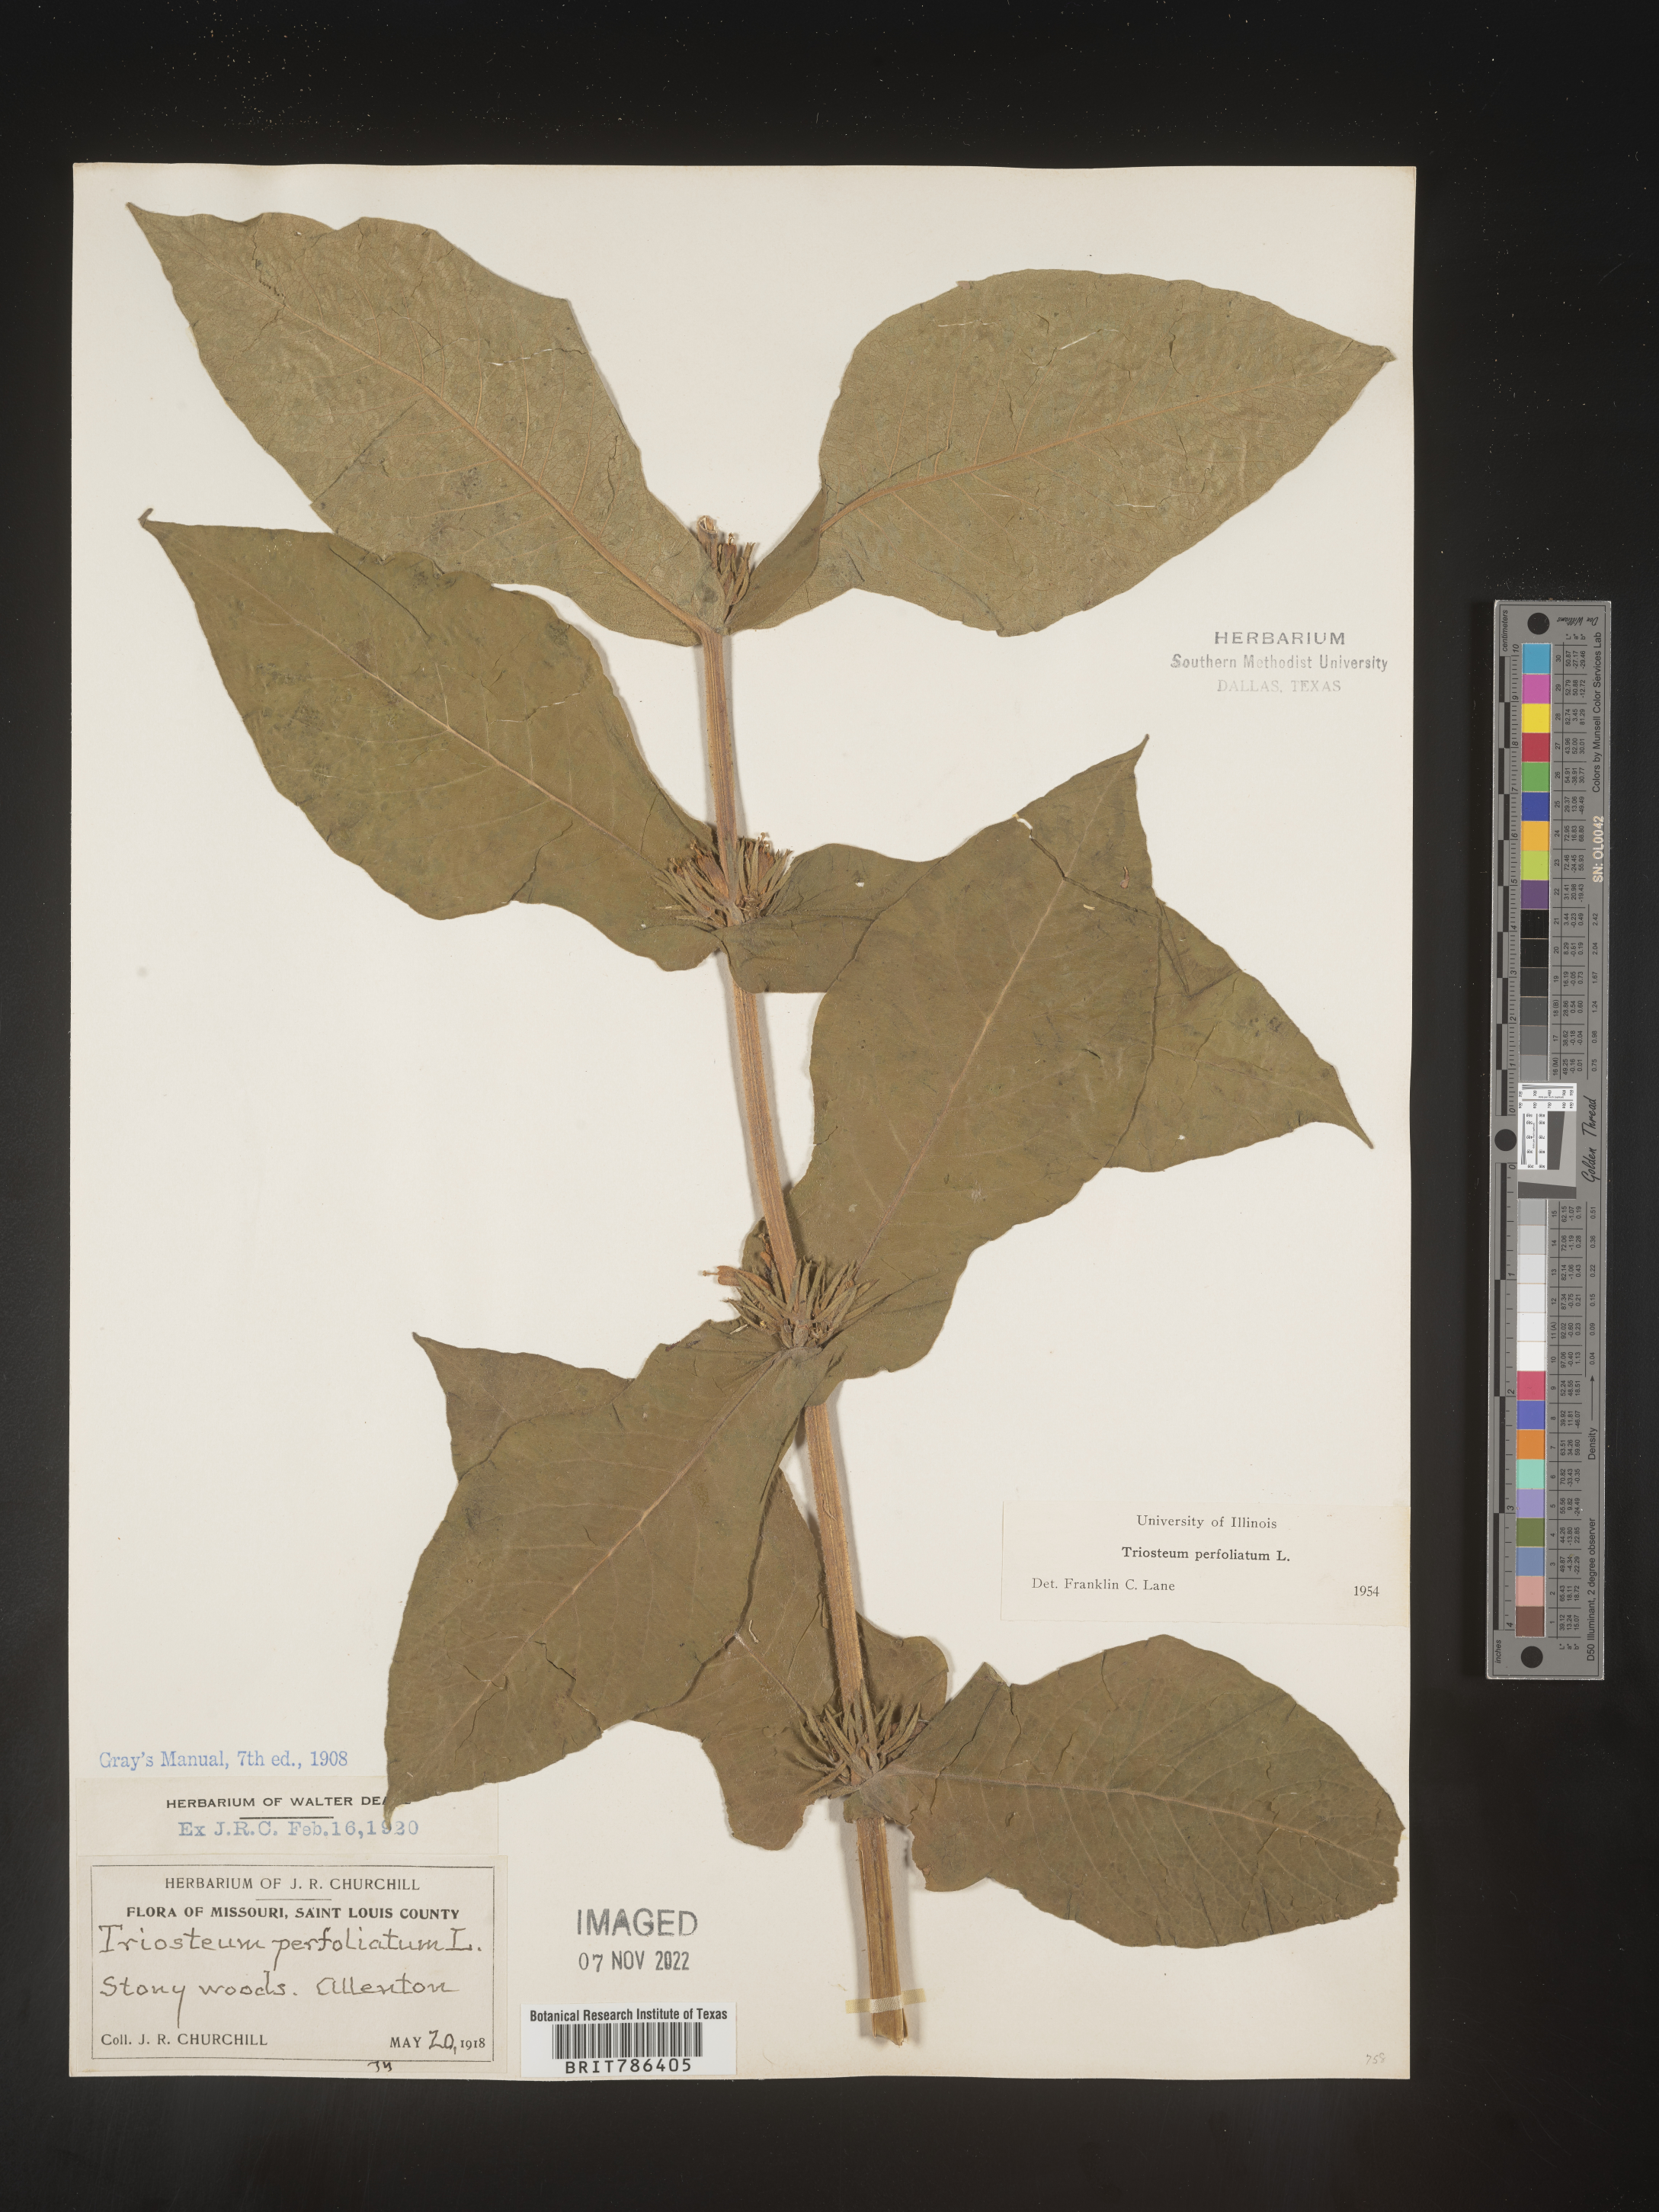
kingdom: Plantae
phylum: Tracheophyta
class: Magnoliopsida
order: Dipsacales
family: Caprifoliaceae
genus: Triosteum
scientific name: Triosteum perfoliatum
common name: Common horse-gentian
